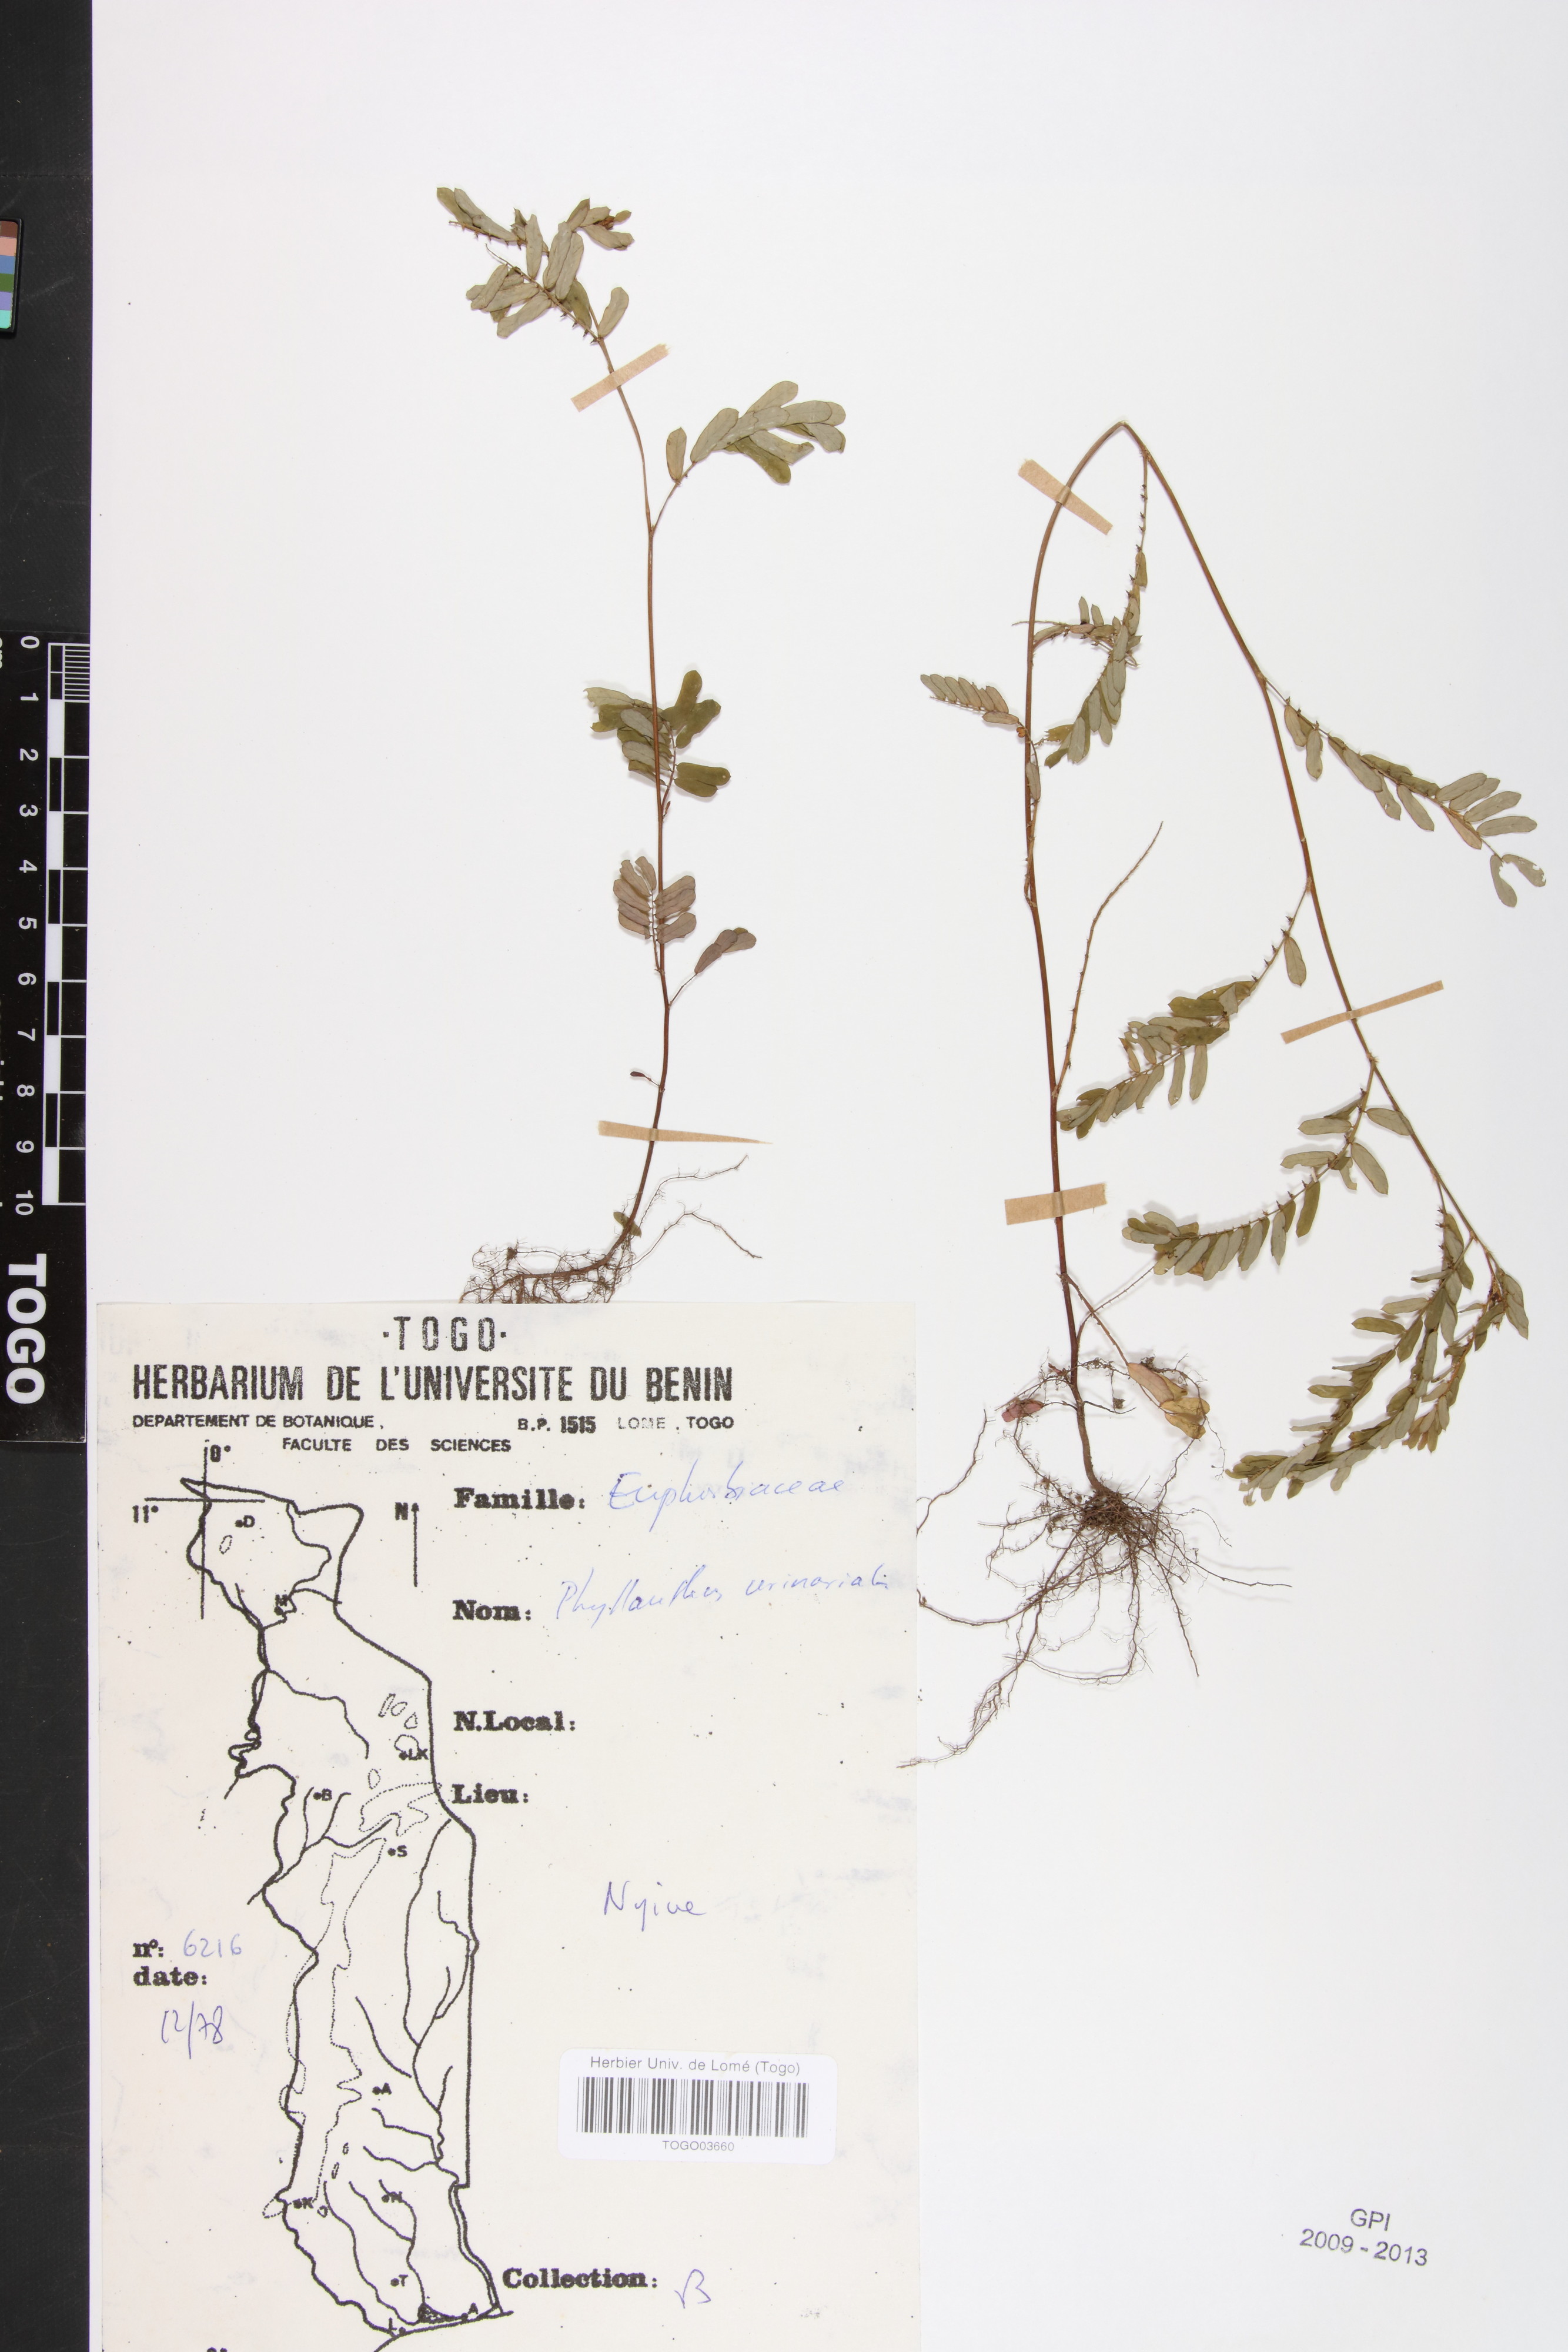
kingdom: Plantae
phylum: Tracheophyta
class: Magnoliopsida
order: Malpighiales
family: Phyllanthaceae
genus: Phyllanthus
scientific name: Phyllanthus urinaria
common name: Chamber bitter
